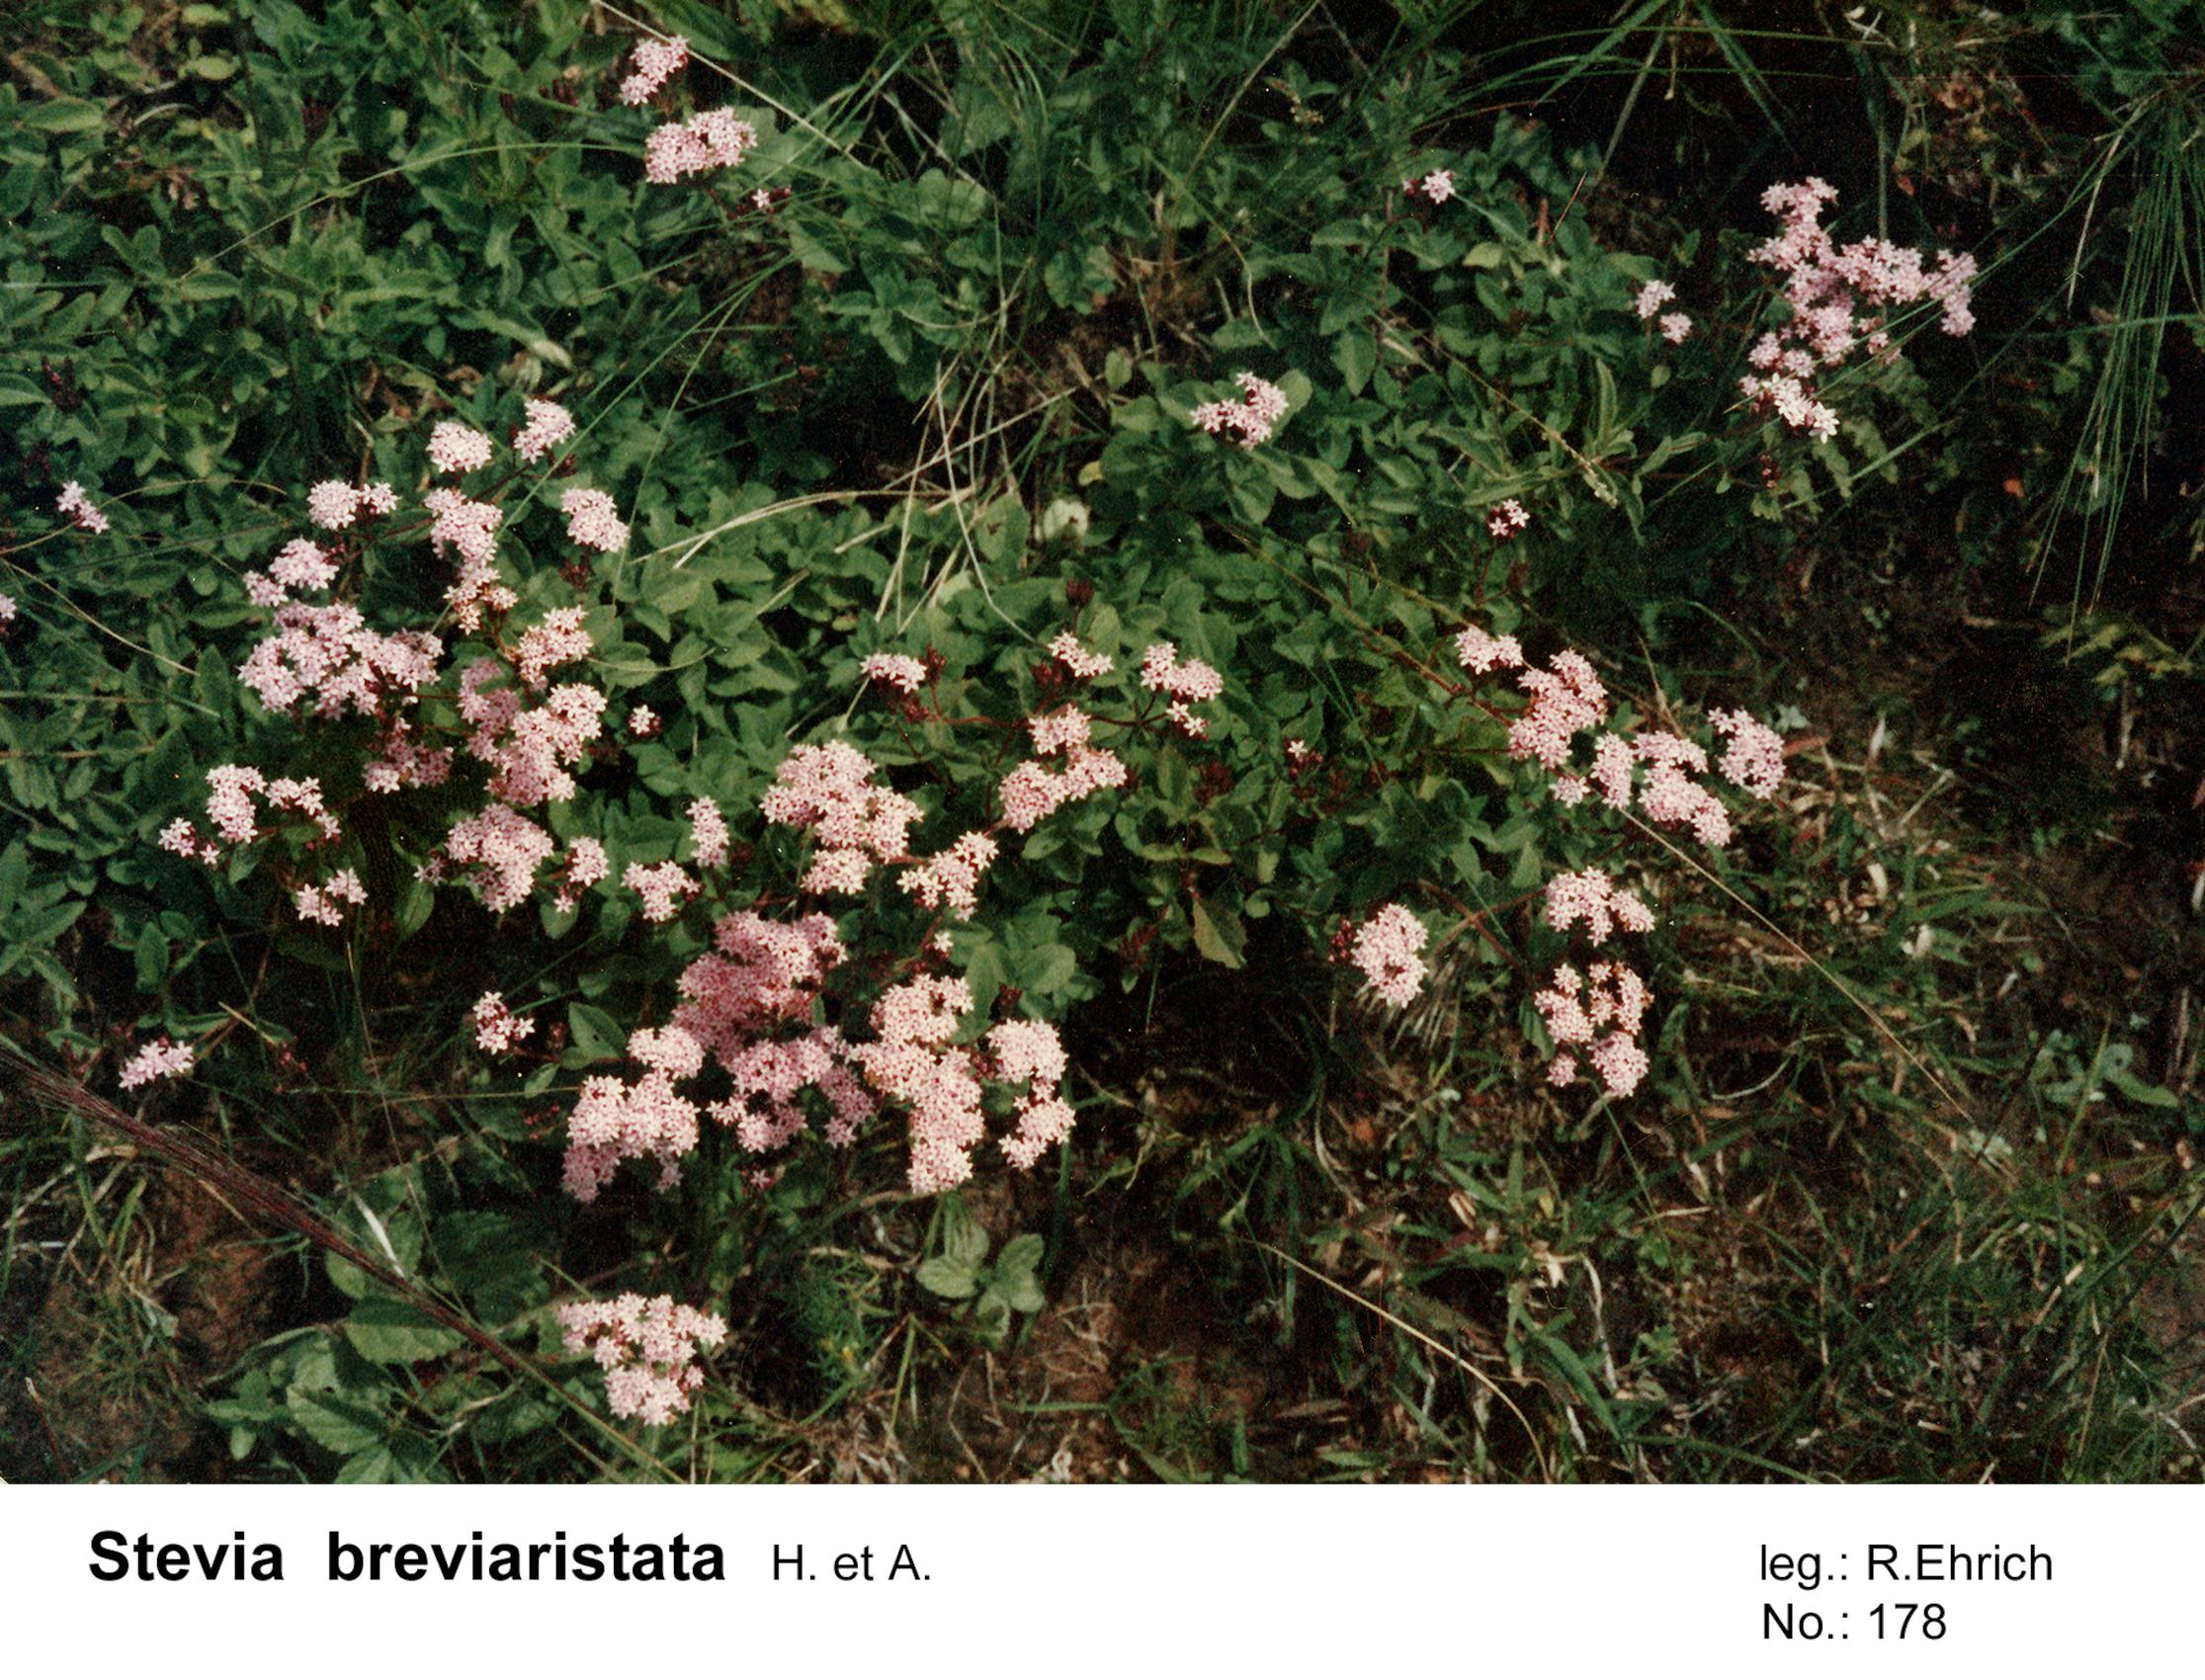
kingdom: Plantae
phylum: Tracheophyta
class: Magnoliopsida
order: Asterales
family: Asteraceae
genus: Stevia
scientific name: Stevia breviaristata
